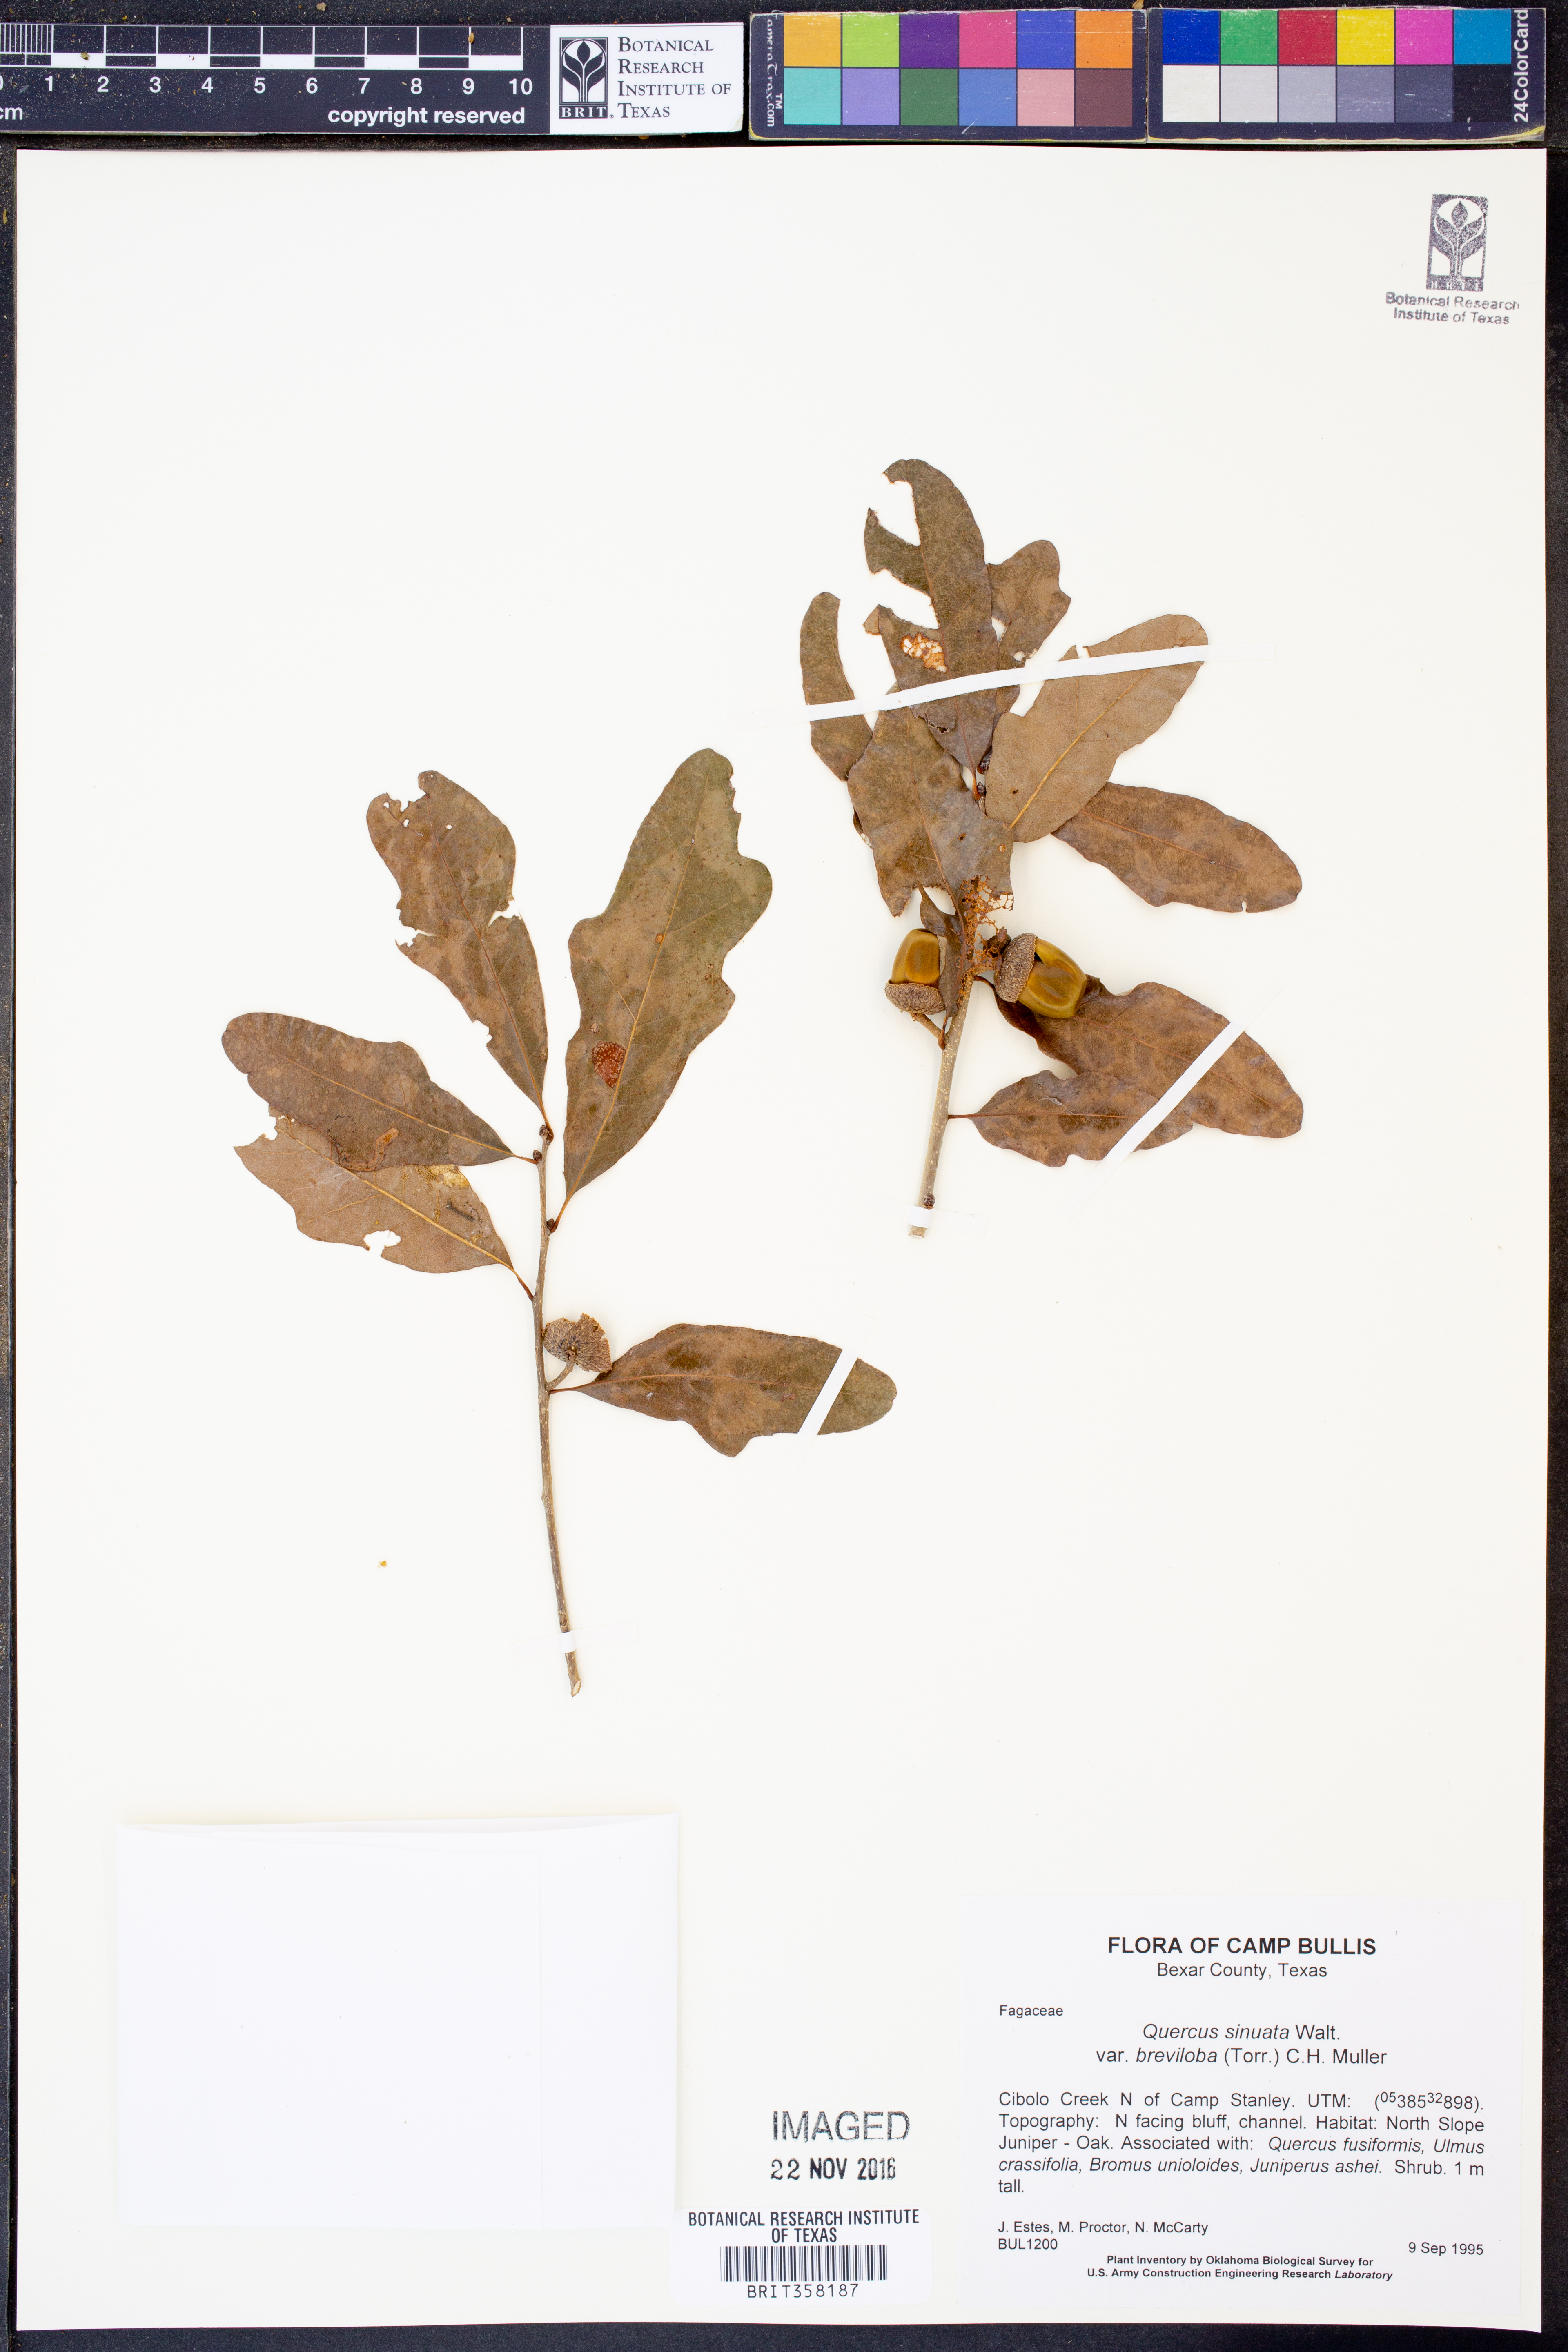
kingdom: Plantae
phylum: Tracheophyta
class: Magnoliopsida
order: Fagales
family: Fagaceae
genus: Quercus
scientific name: Quercus sinuata
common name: Durand oak
